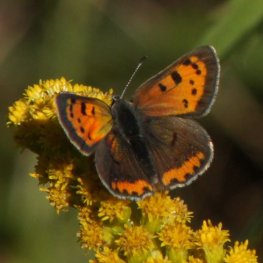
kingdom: Animalia
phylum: Arthropoda
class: Insecta
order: Lepidoptera
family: Lycaenidae
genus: Lycaena
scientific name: Lycaena phlaeas
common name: American Copper
